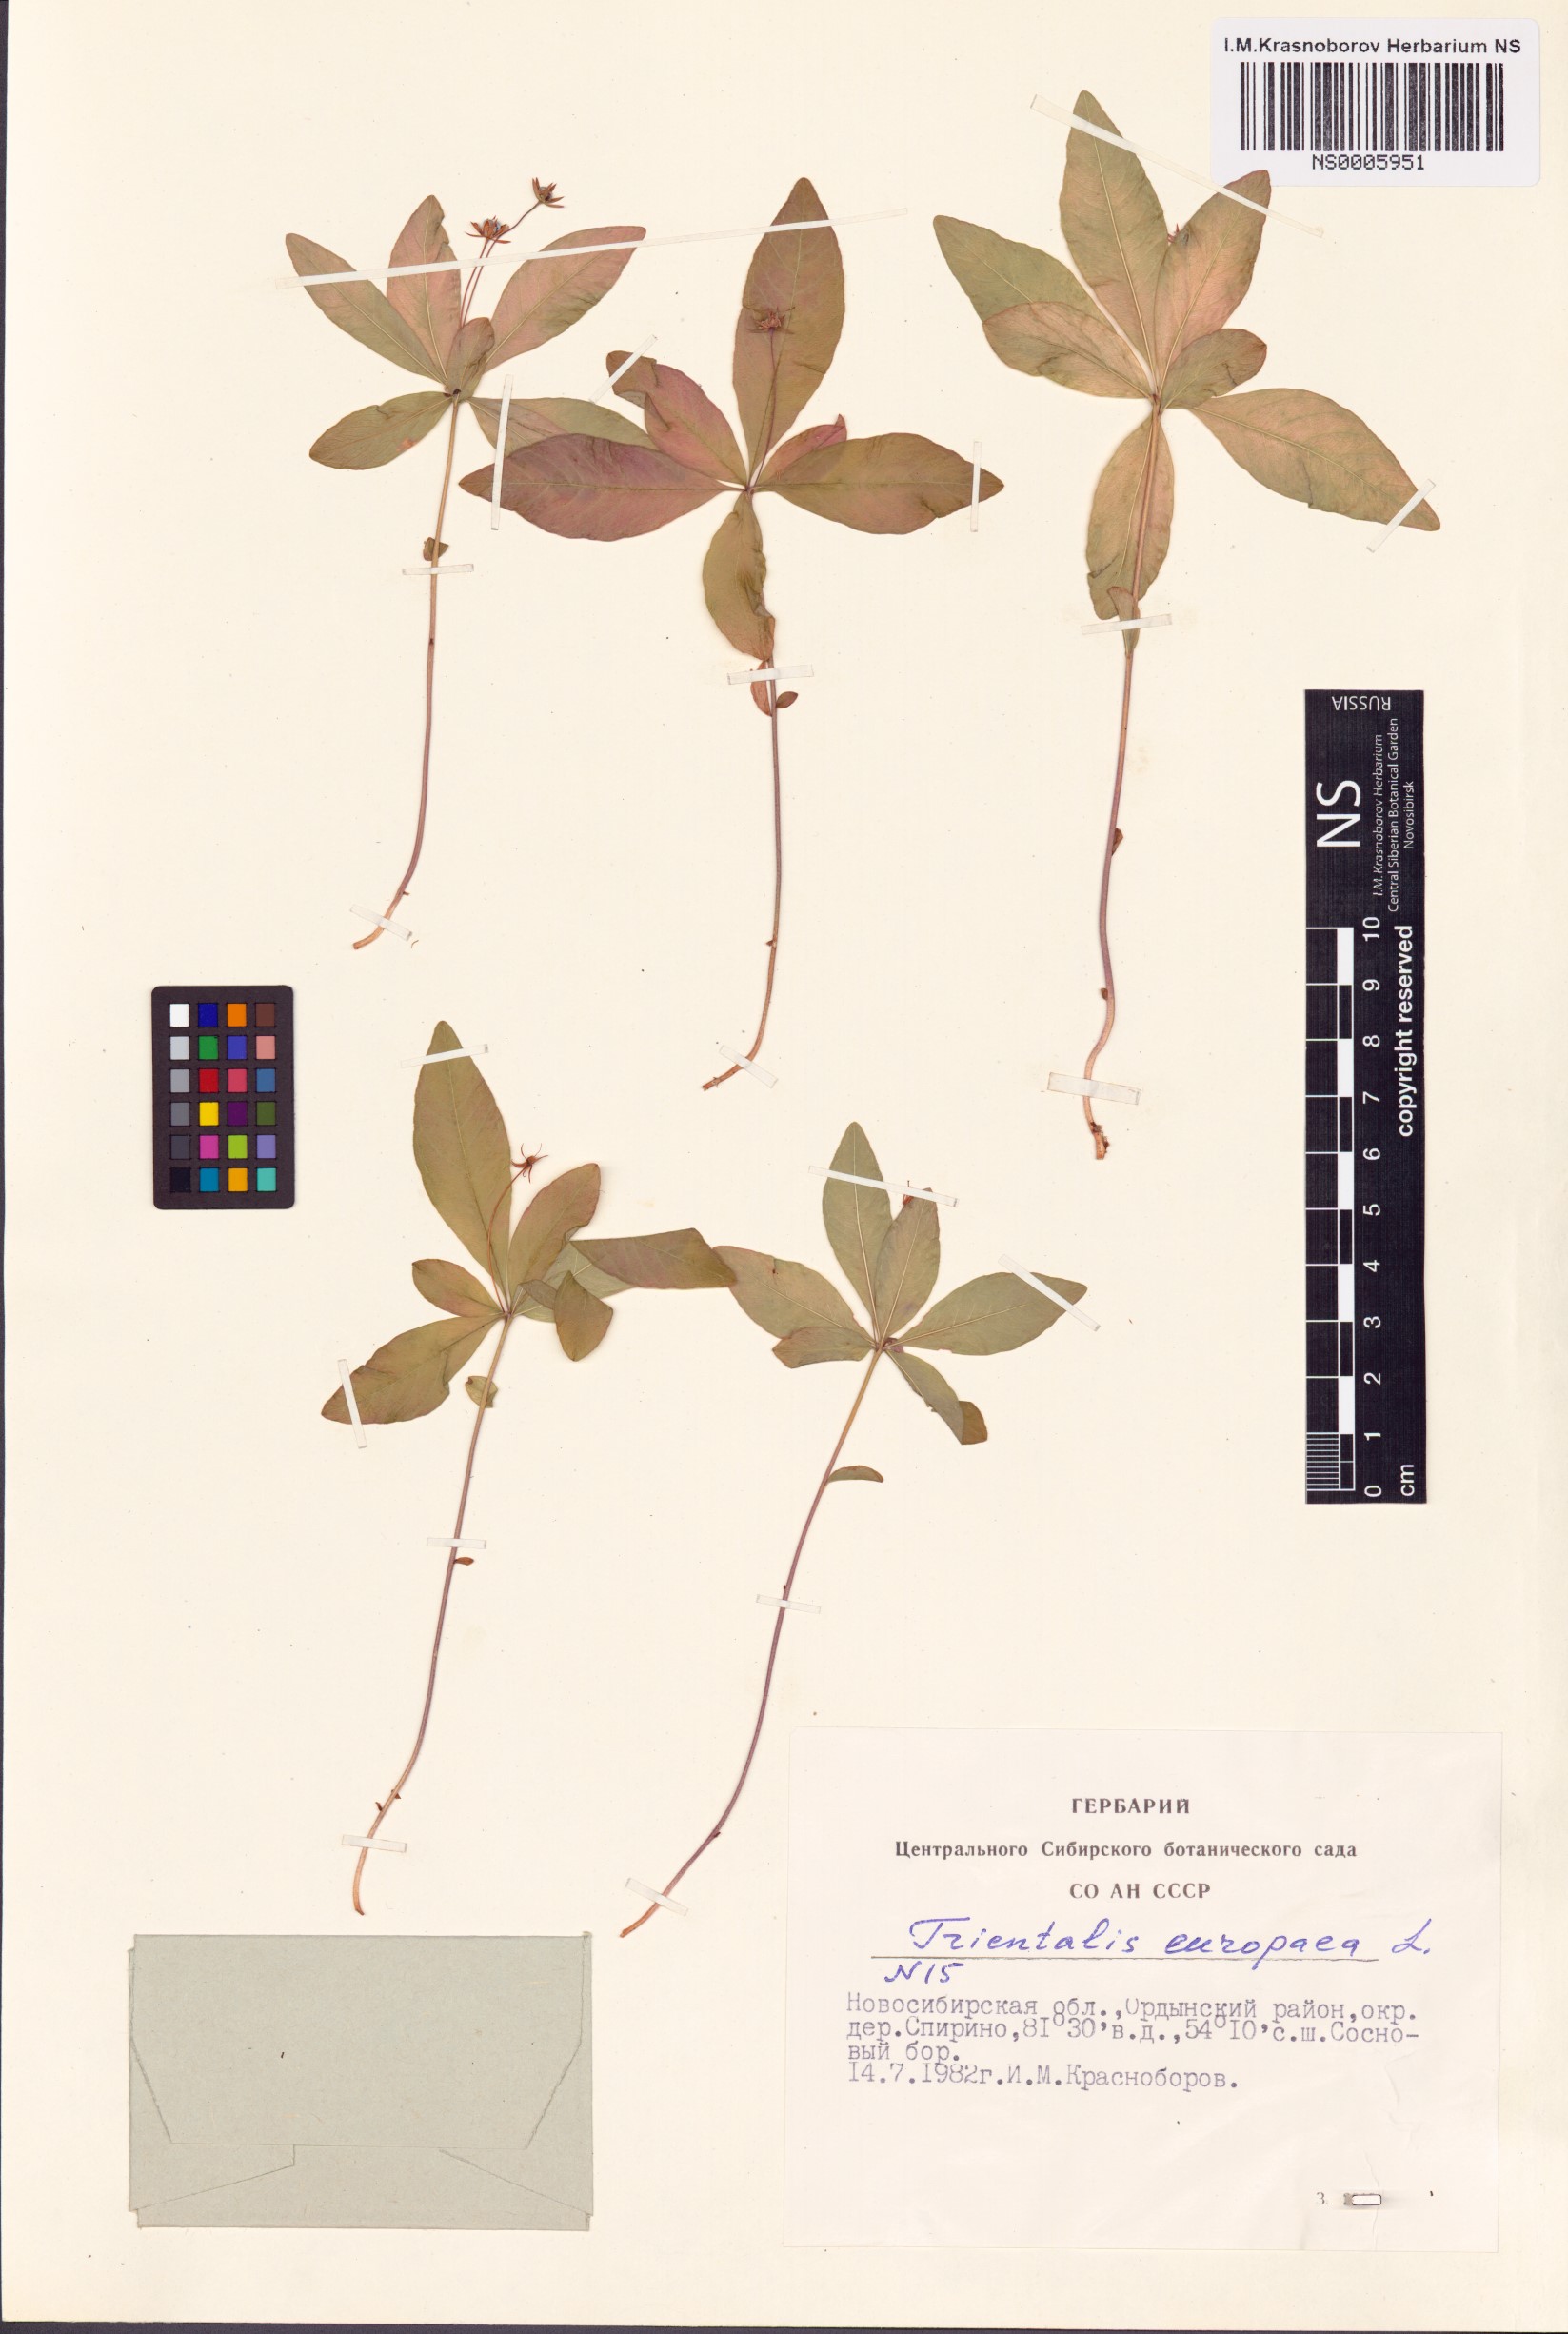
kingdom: Plantae
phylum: Tracheophyta
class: Magnoliopsida
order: Ericales
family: Primulaceae
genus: Lysimachia
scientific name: Lysimachia europaea
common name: Arctic starflower
